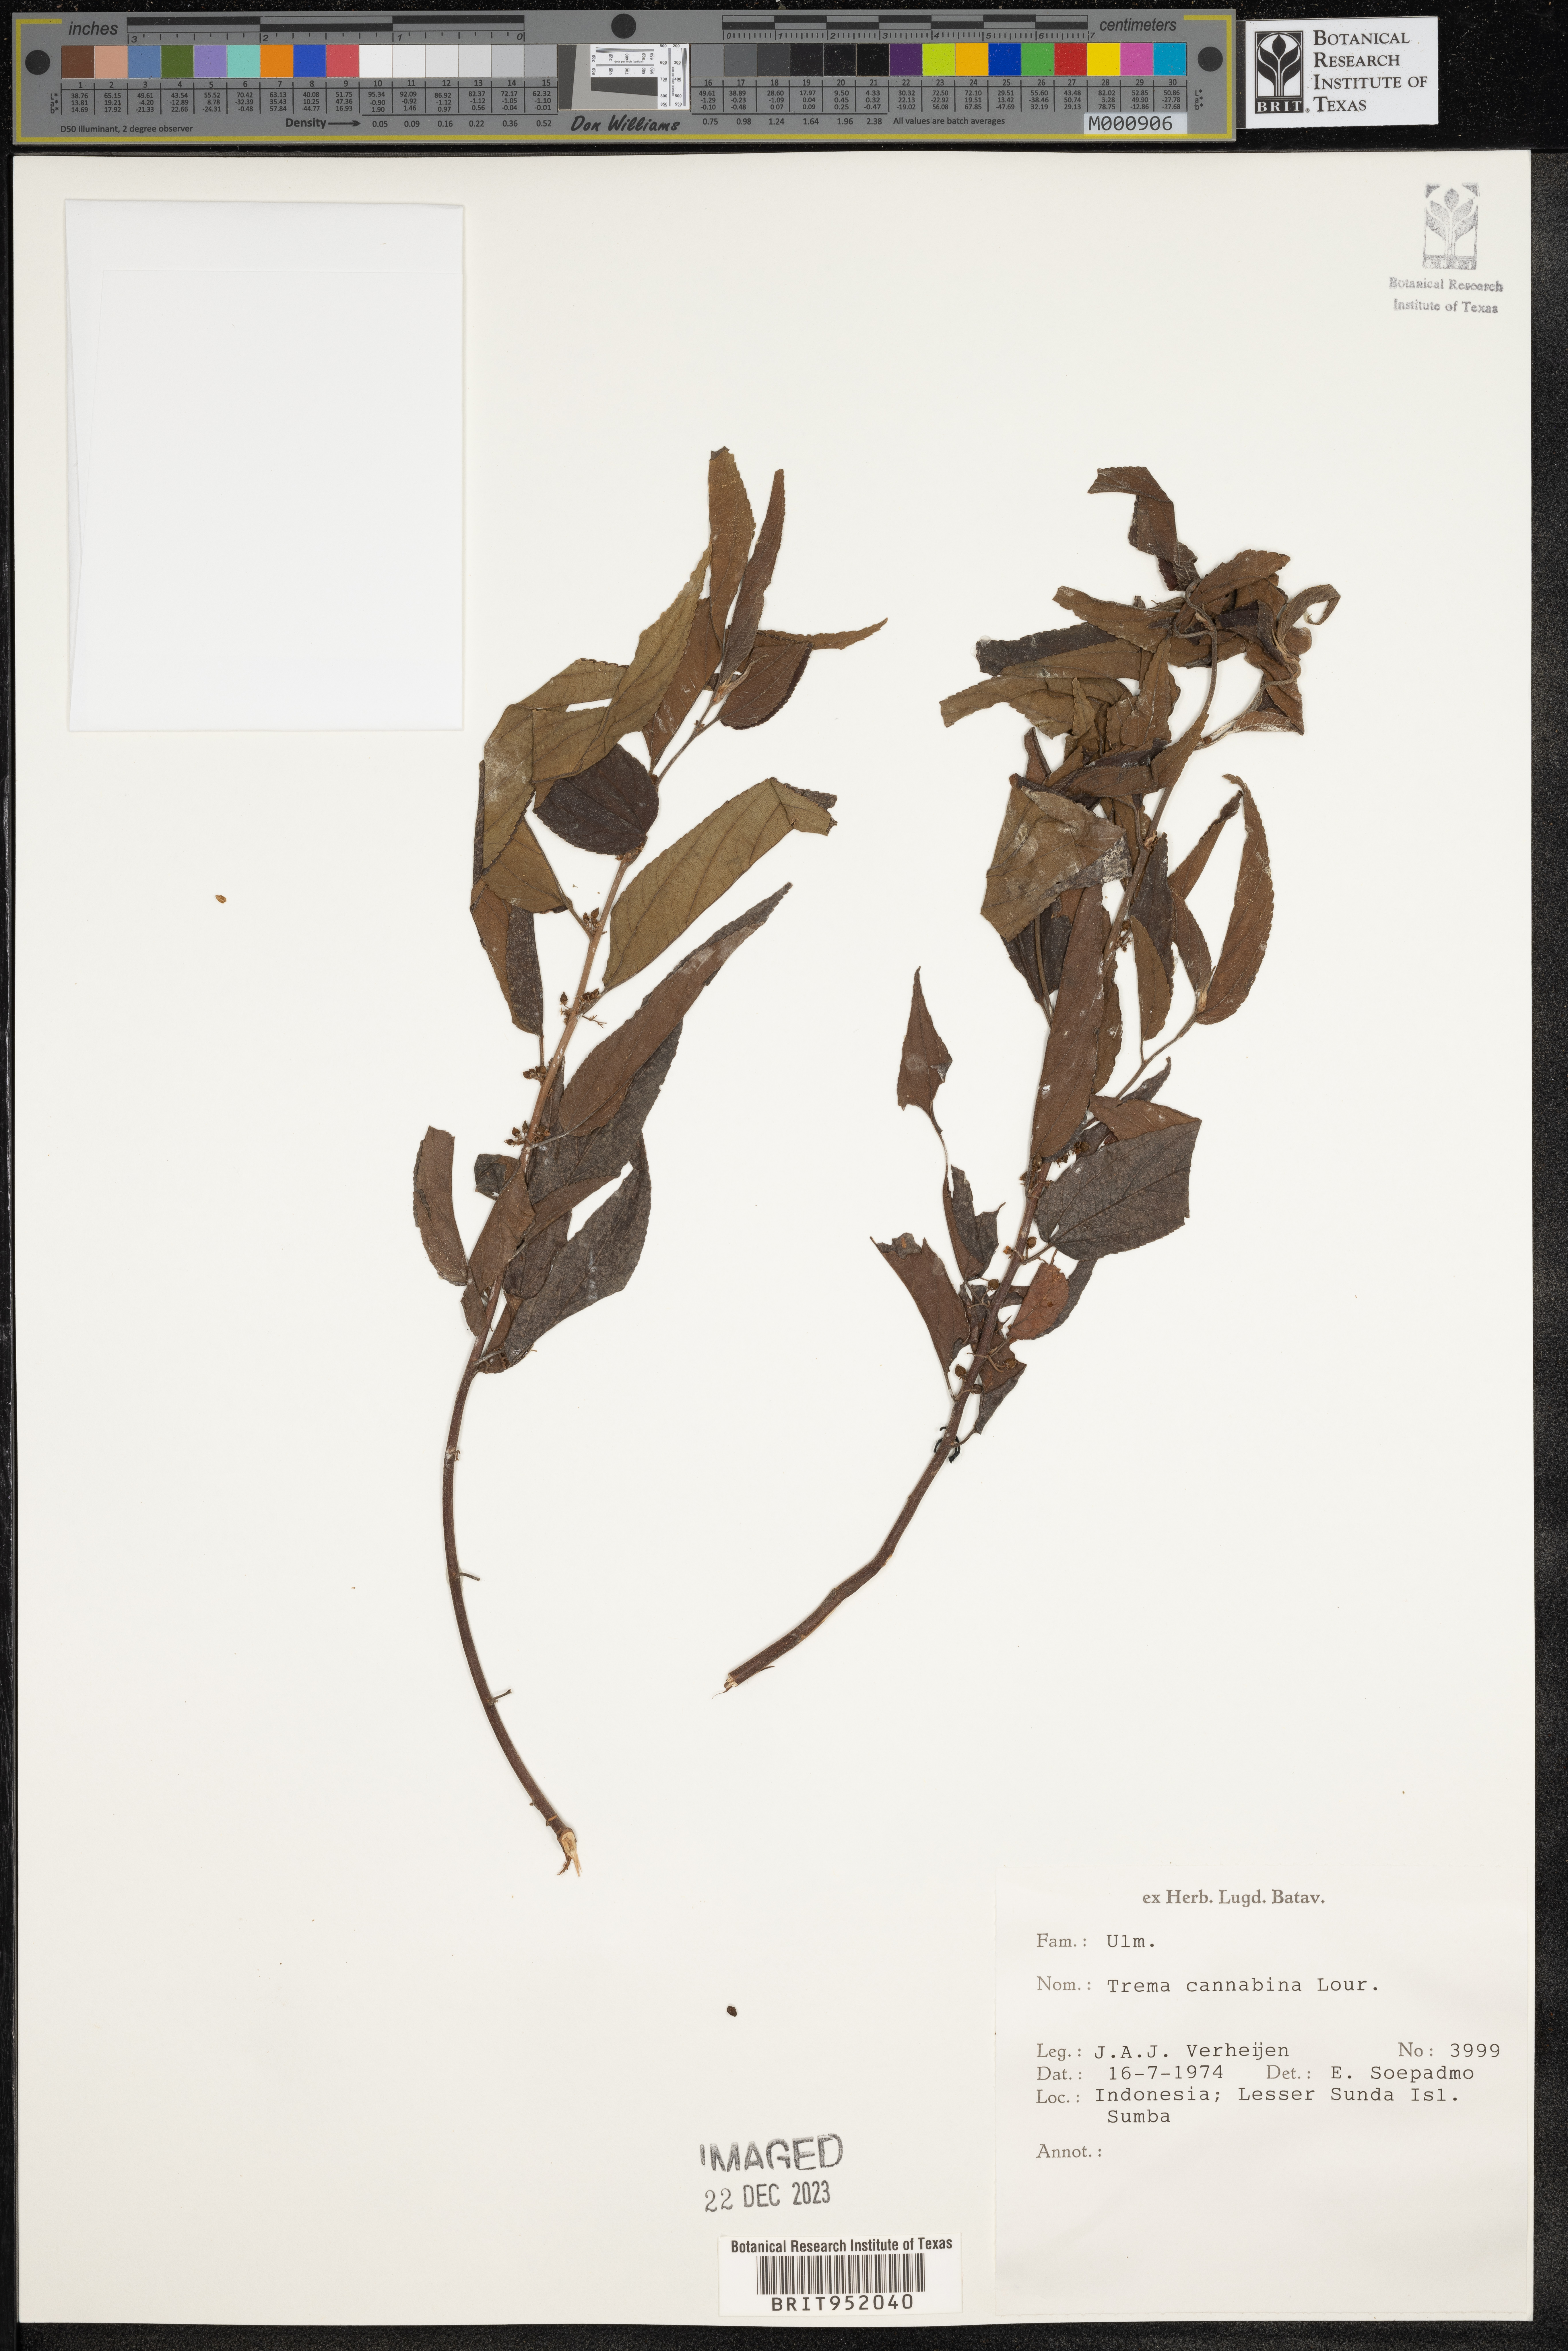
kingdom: Plantae
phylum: Tracheophyta
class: Magnoliopsida
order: Rosales
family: Cannabaceae
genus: Trema
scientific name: Trema cannabina
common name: Poison-peach
